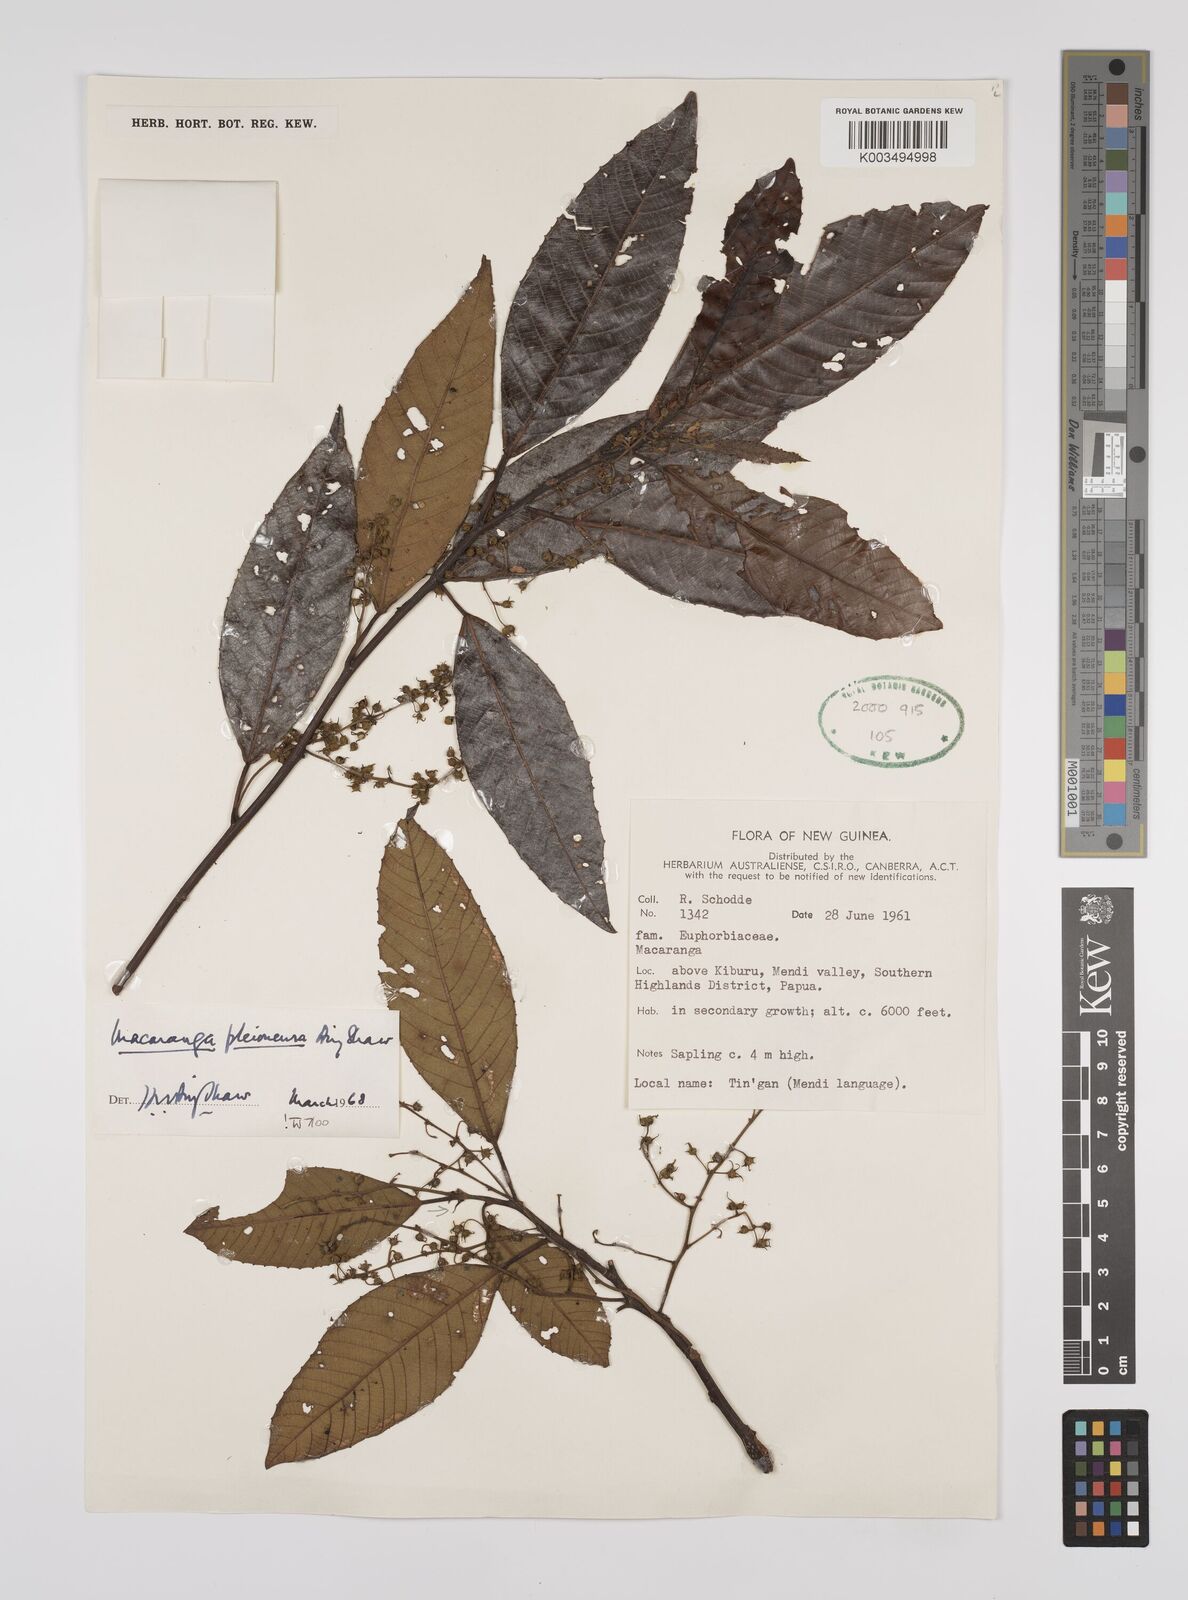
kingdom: Plantae
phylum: Tracheophyta
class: Magnoliopsida
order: Malpighiales
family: Euphorbiaceae
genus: Macaranga
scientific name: Macaranga pleioneura
